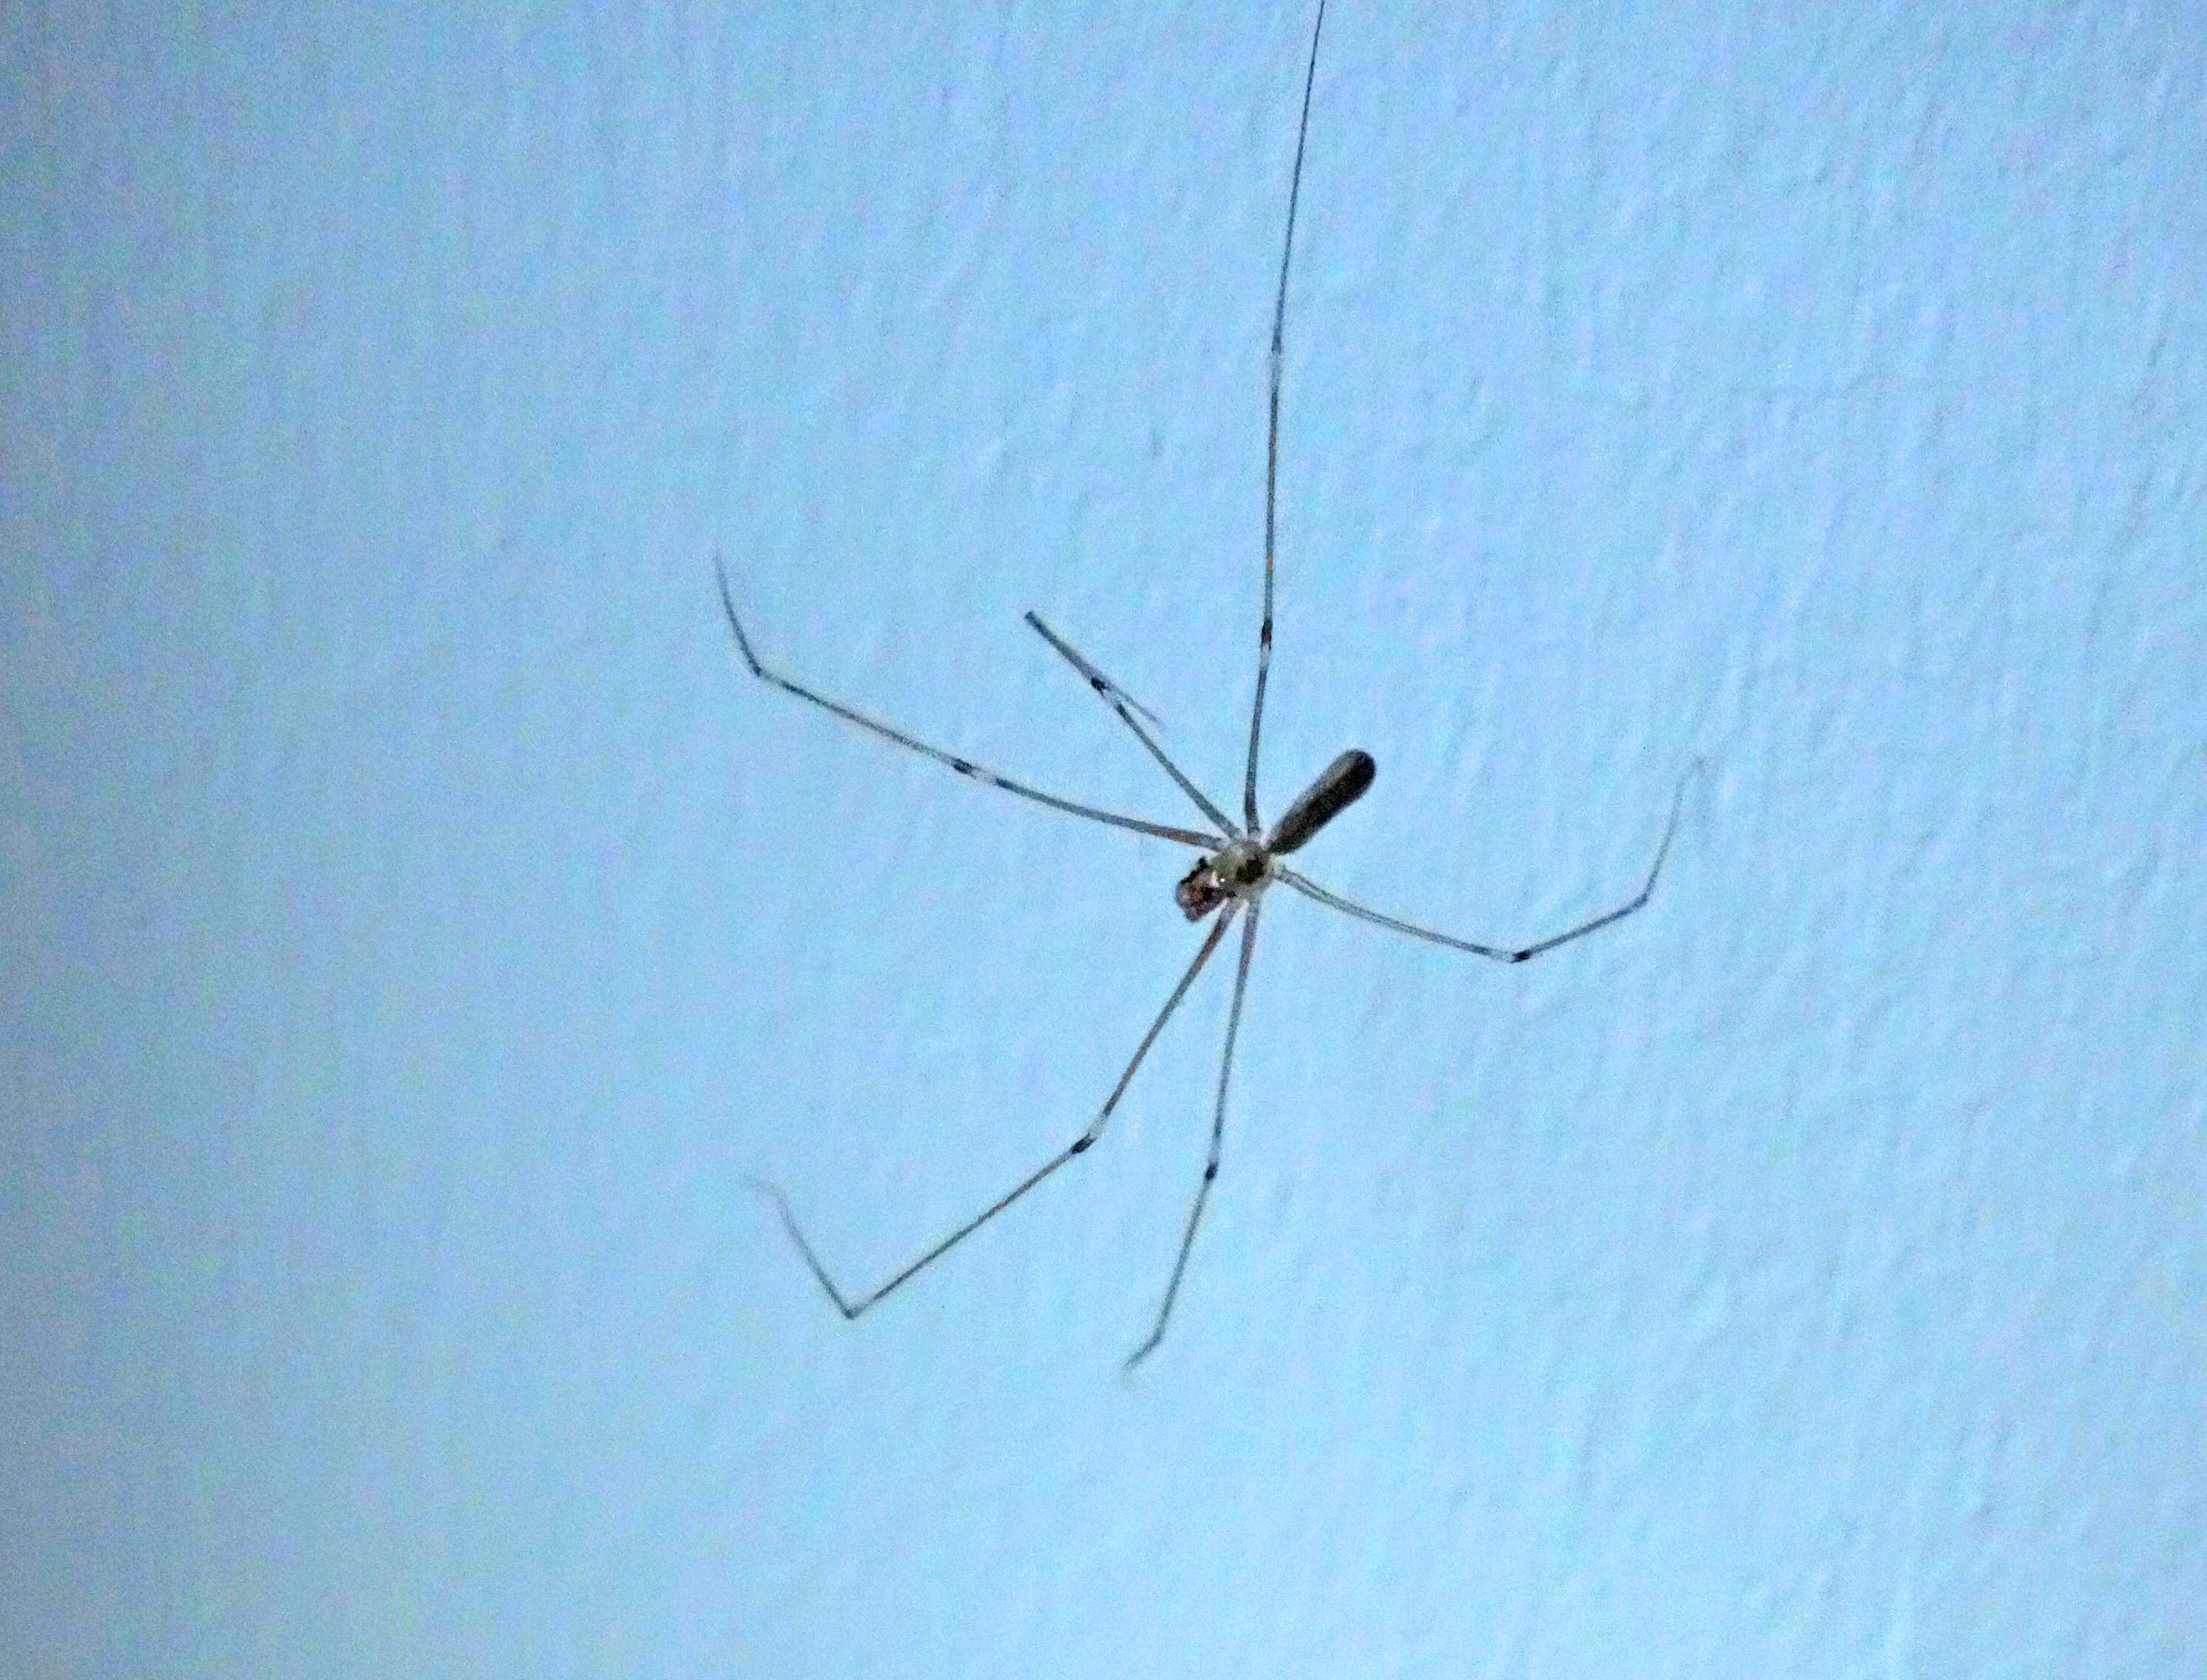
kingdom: Animalia
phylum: Arthropoda
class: Arachnida
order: Araneae
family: Pholcidae
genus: Pholcus
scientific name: Pholcus phalangioides
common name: Mejeredderkop
